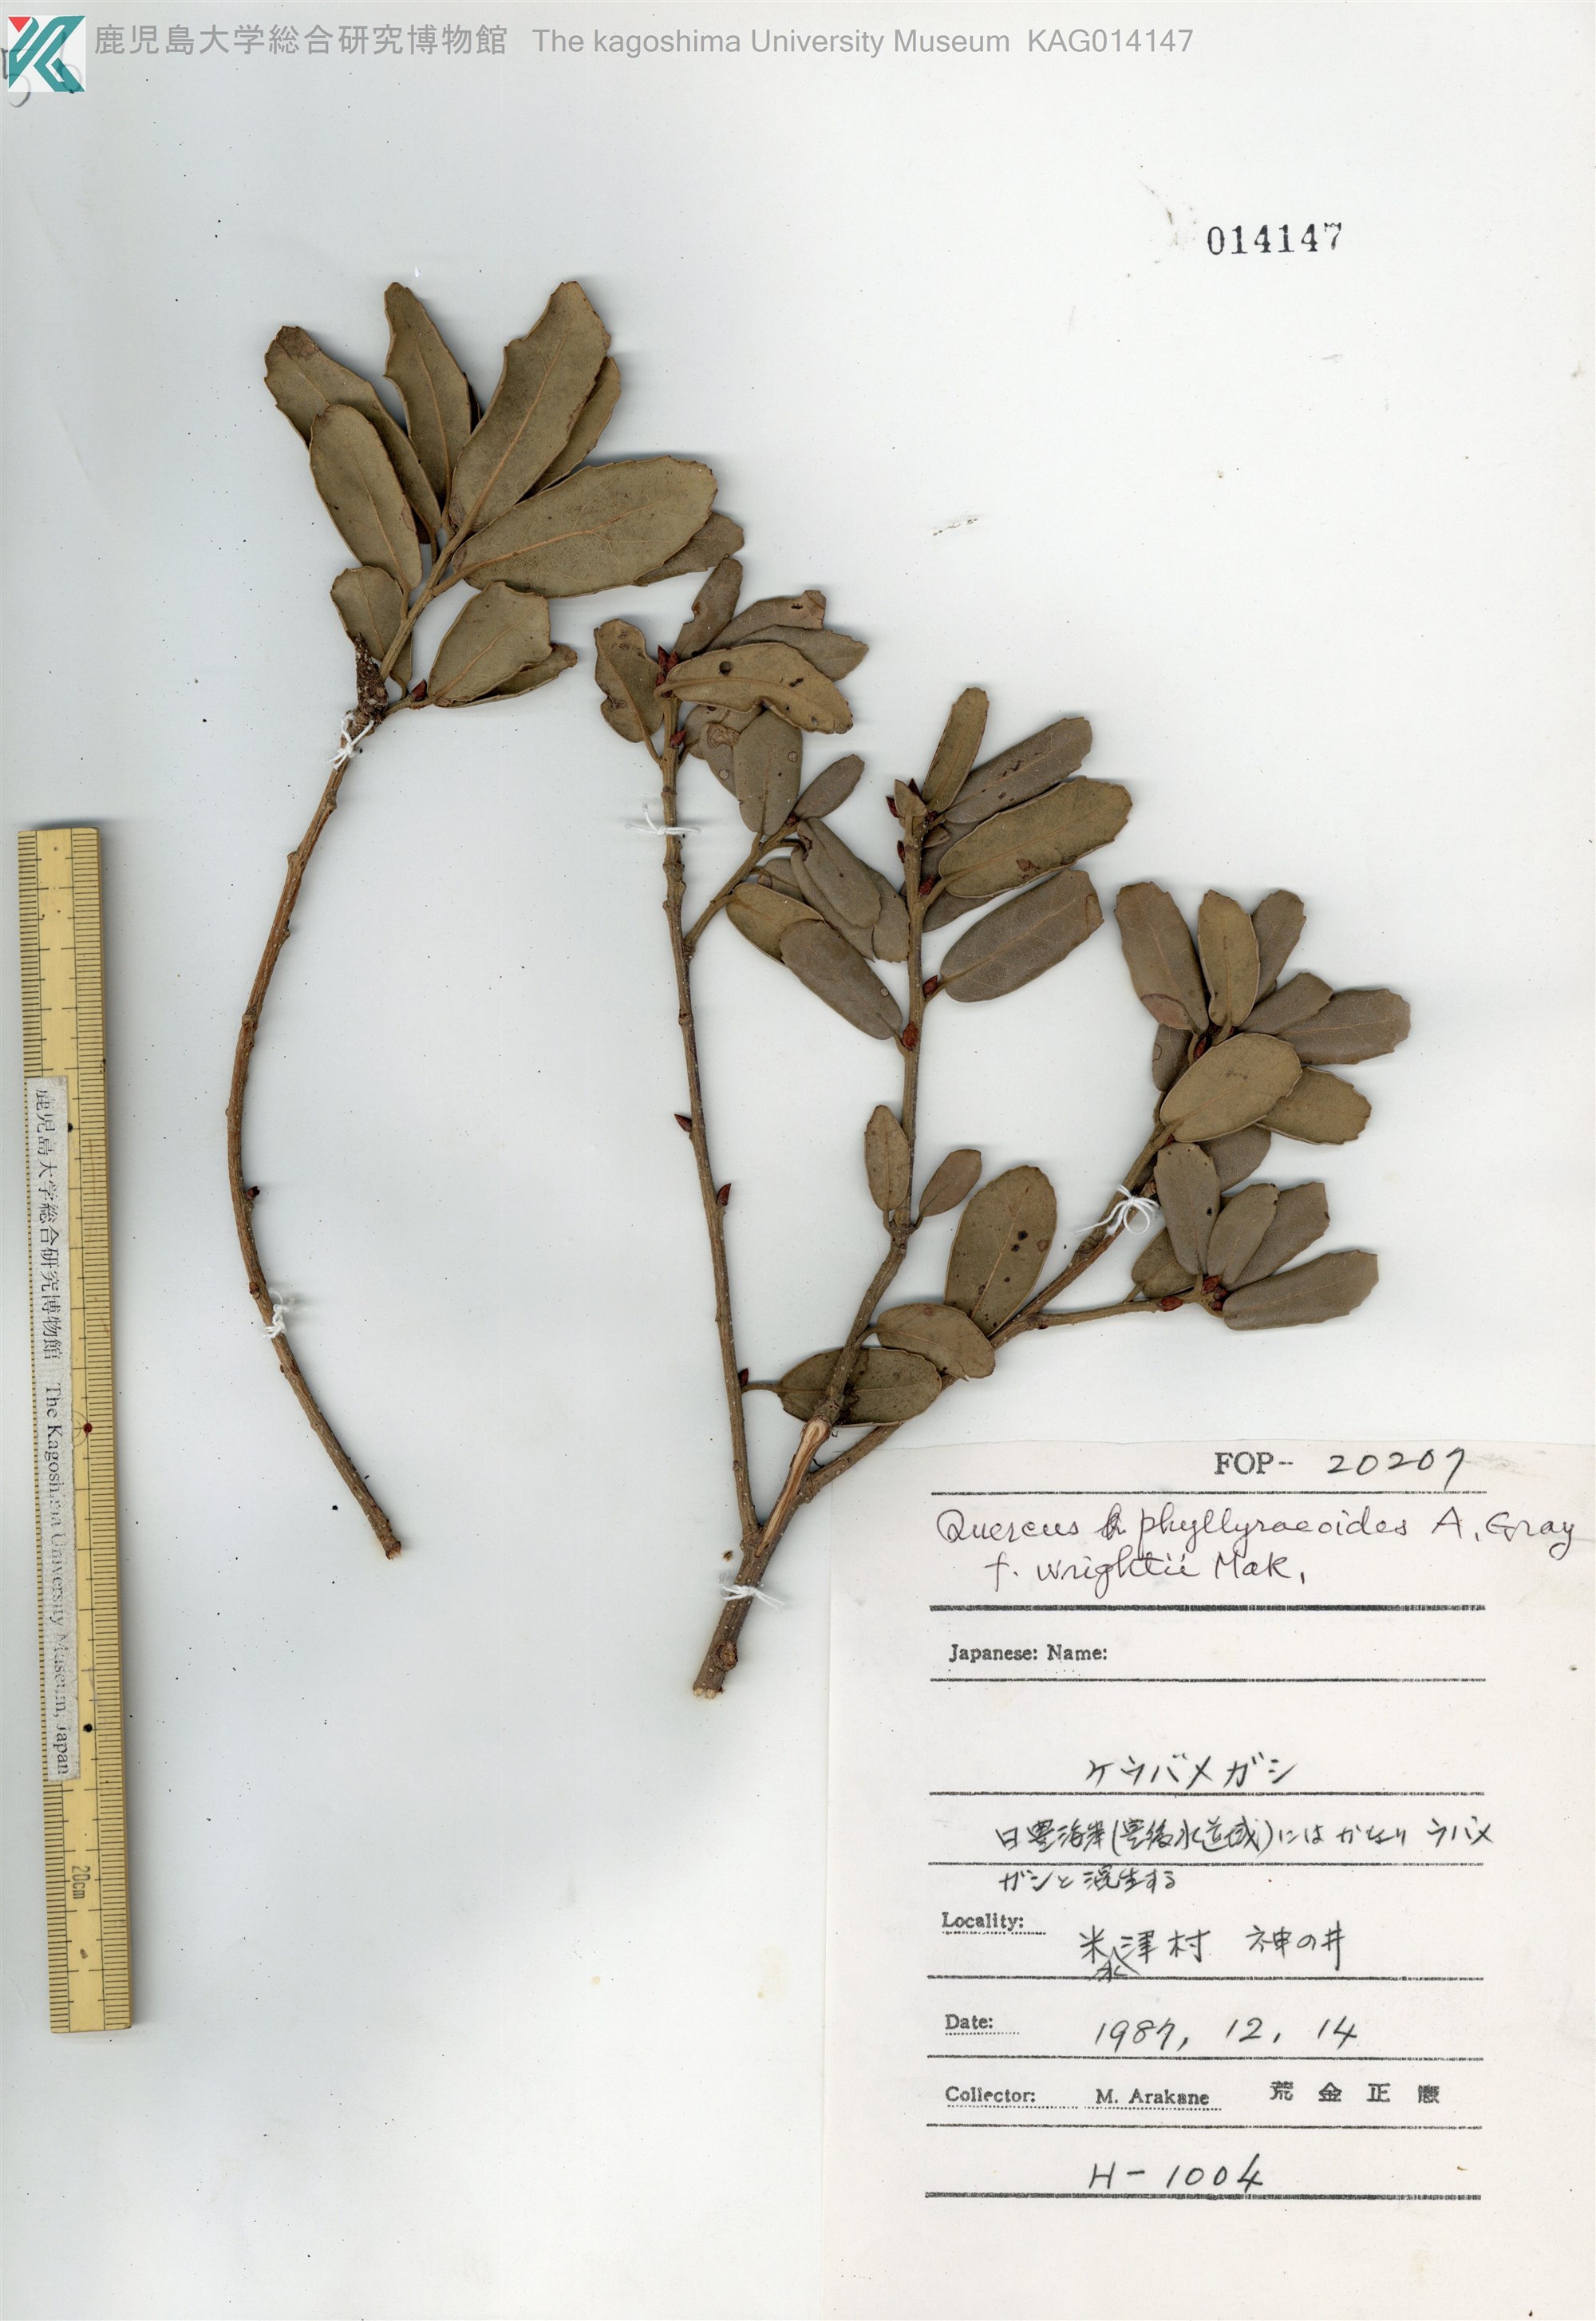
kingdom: Plantae
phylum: Tracheophyta
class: Magnoliopsida
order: Fagales
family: Fagaceae
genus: Quercus
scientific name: Quercus phillyraeoides
